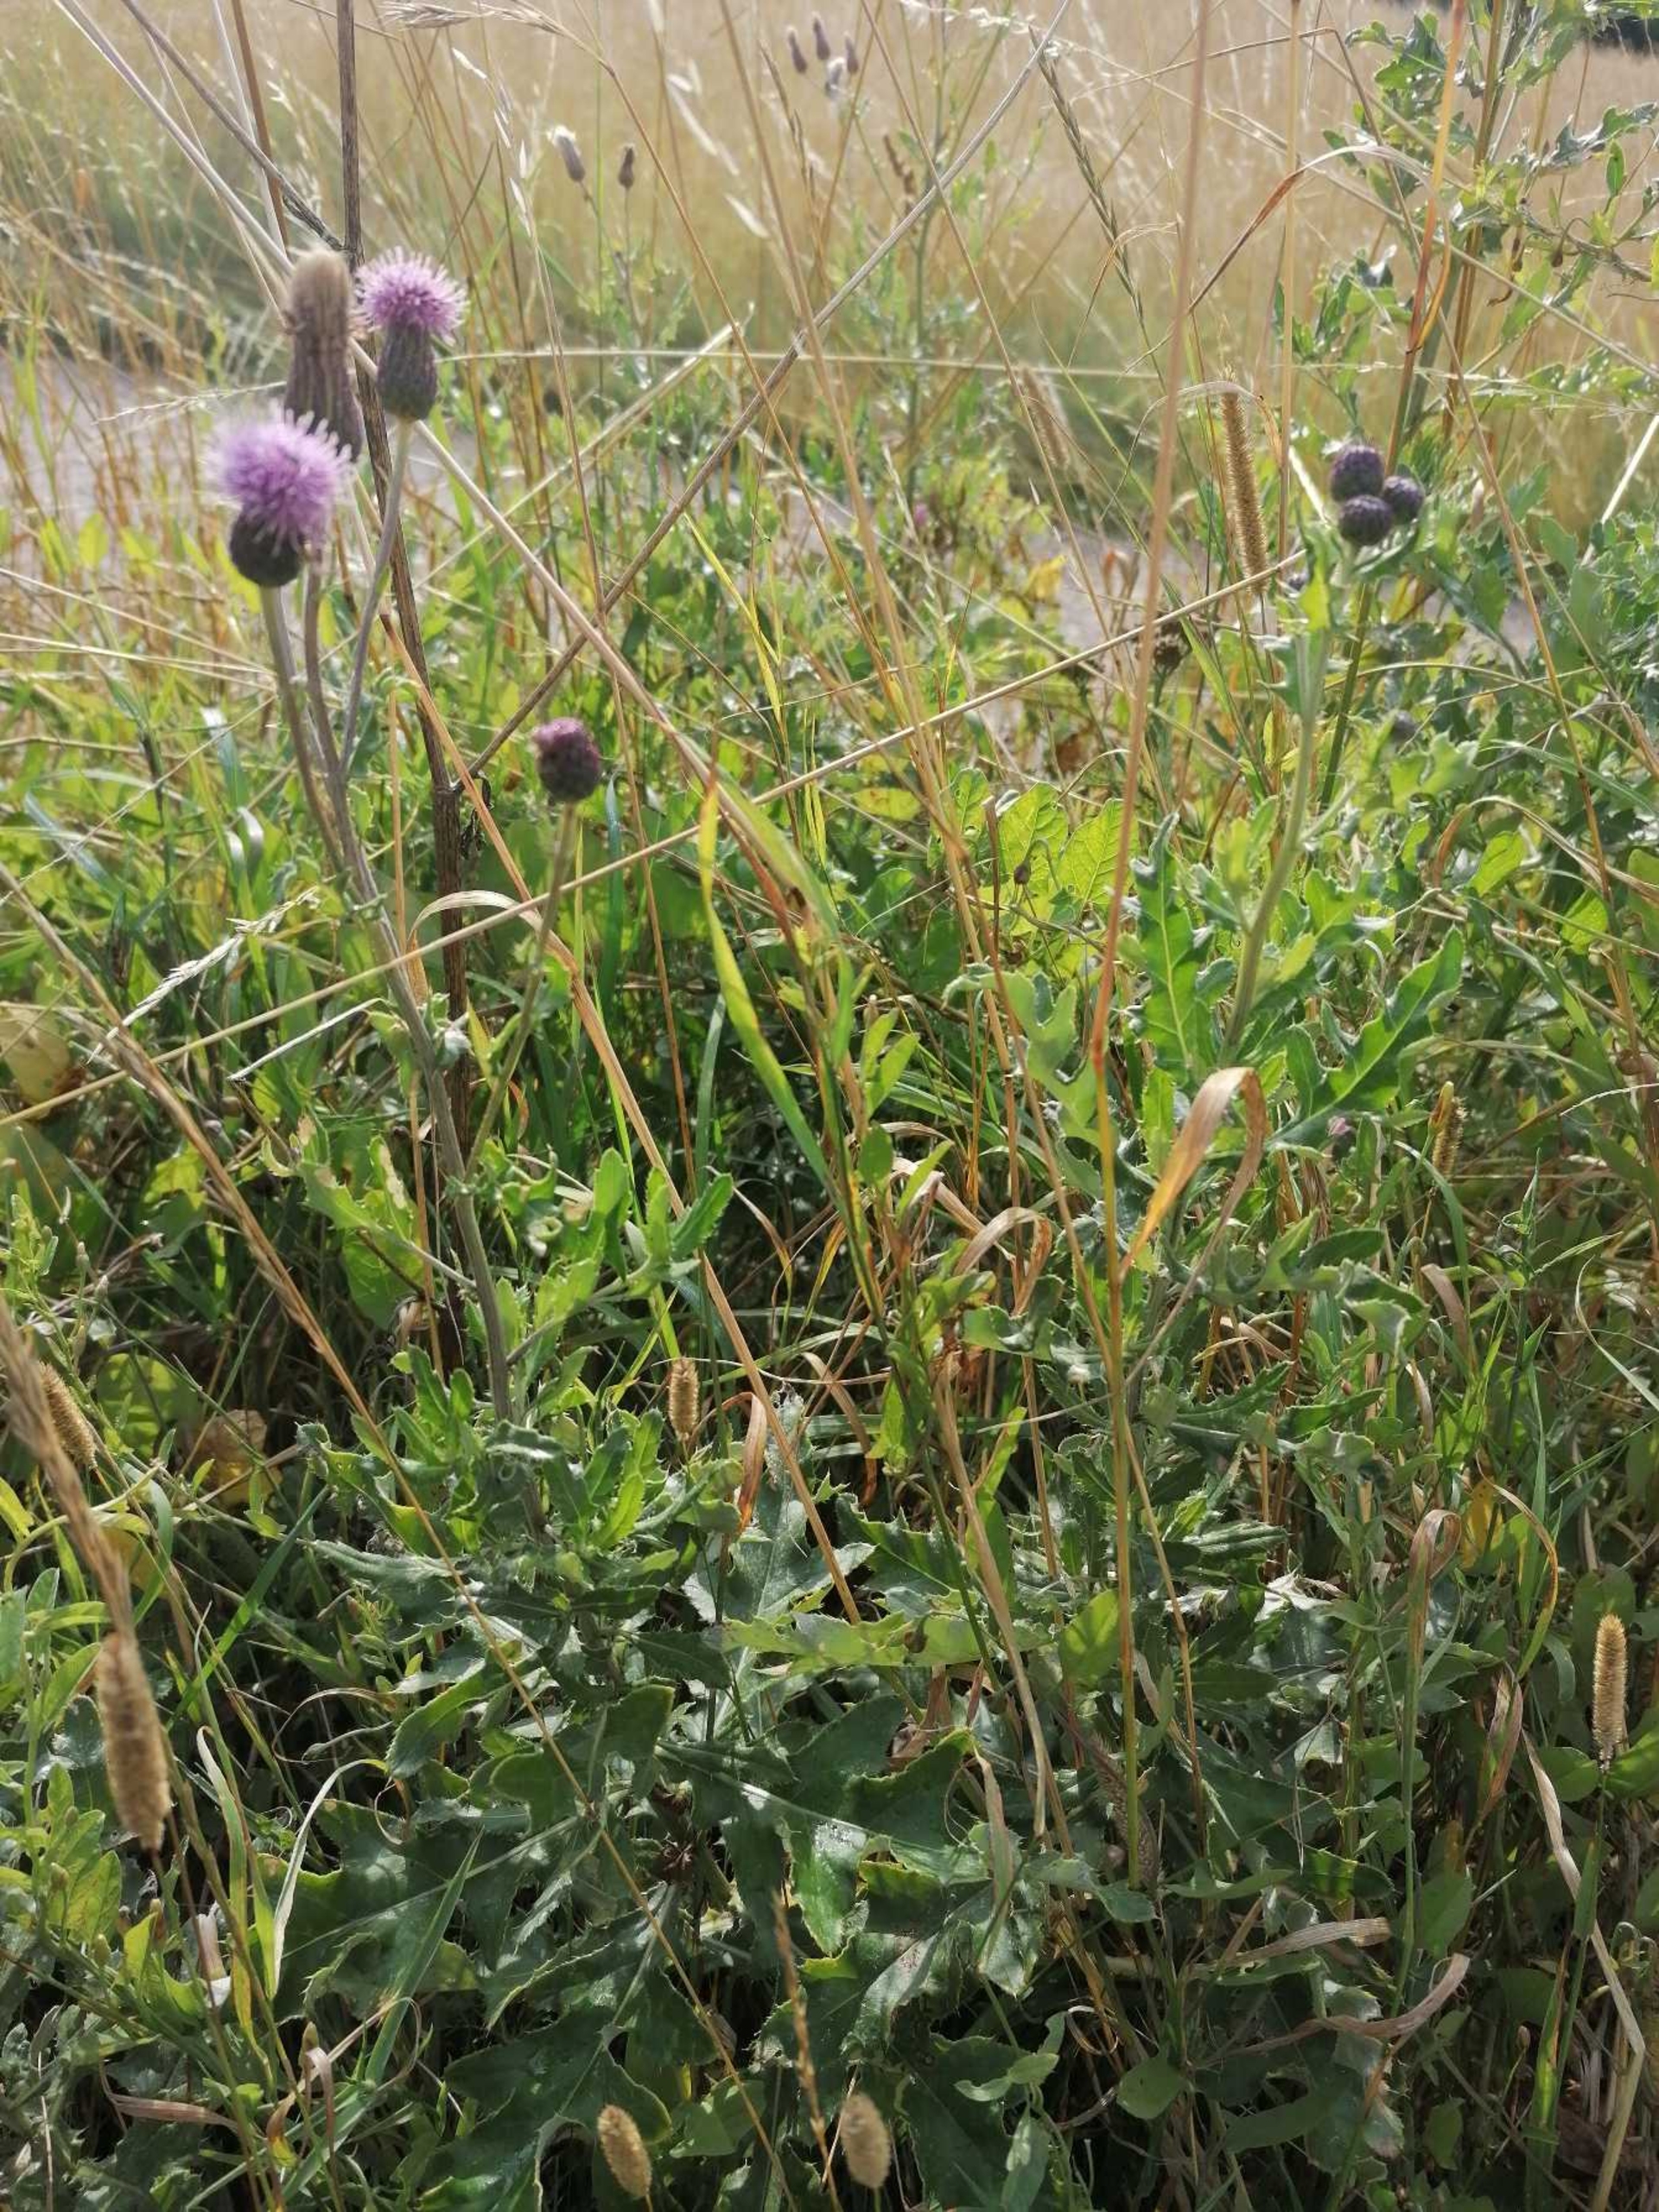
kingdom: Plantae
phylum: Tracheophyta
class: Magnoliopsida
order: Asterales
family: Asteraceae
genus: Cirsium
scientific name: Cirsium arvense
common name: Ager-tidsel
